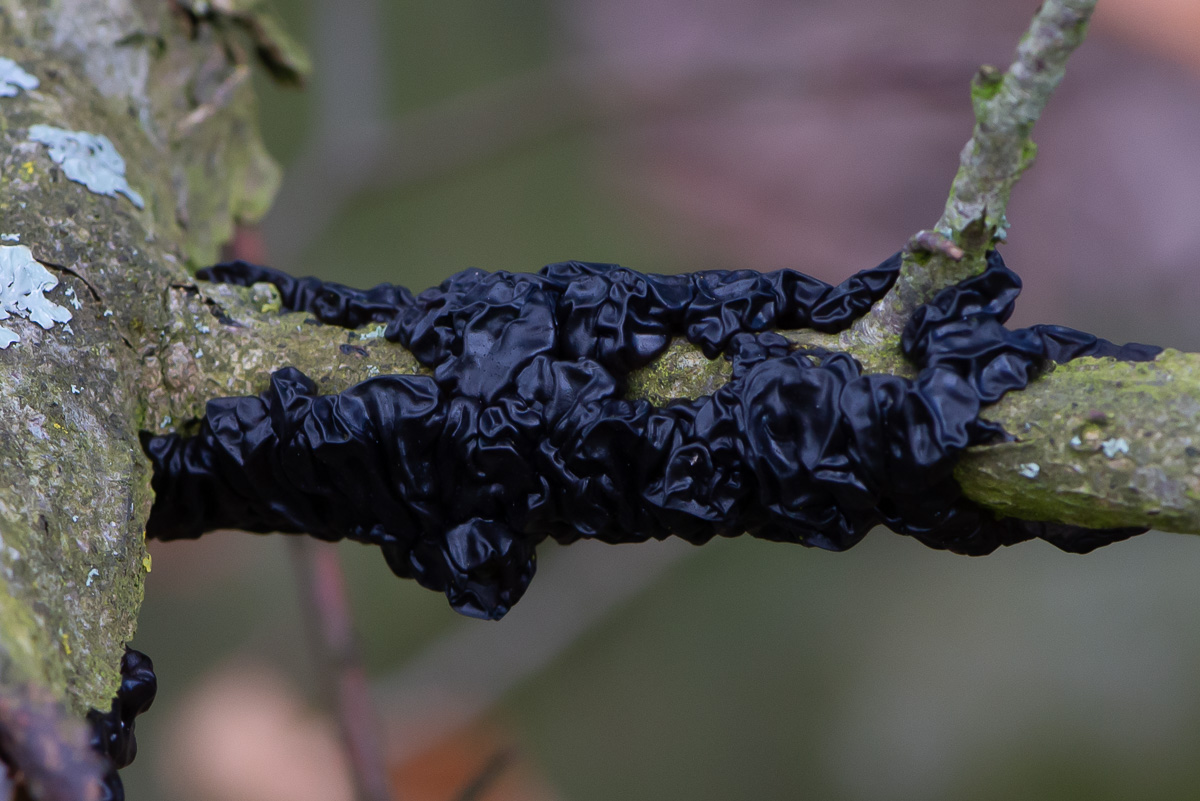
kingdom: Fungi
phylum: Basidiomycota
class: Agaricomycetes
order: Auriculariales
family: Auriculariaceae
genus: Exidia
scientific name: Exidia nigricans
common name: almindelig bævretop
